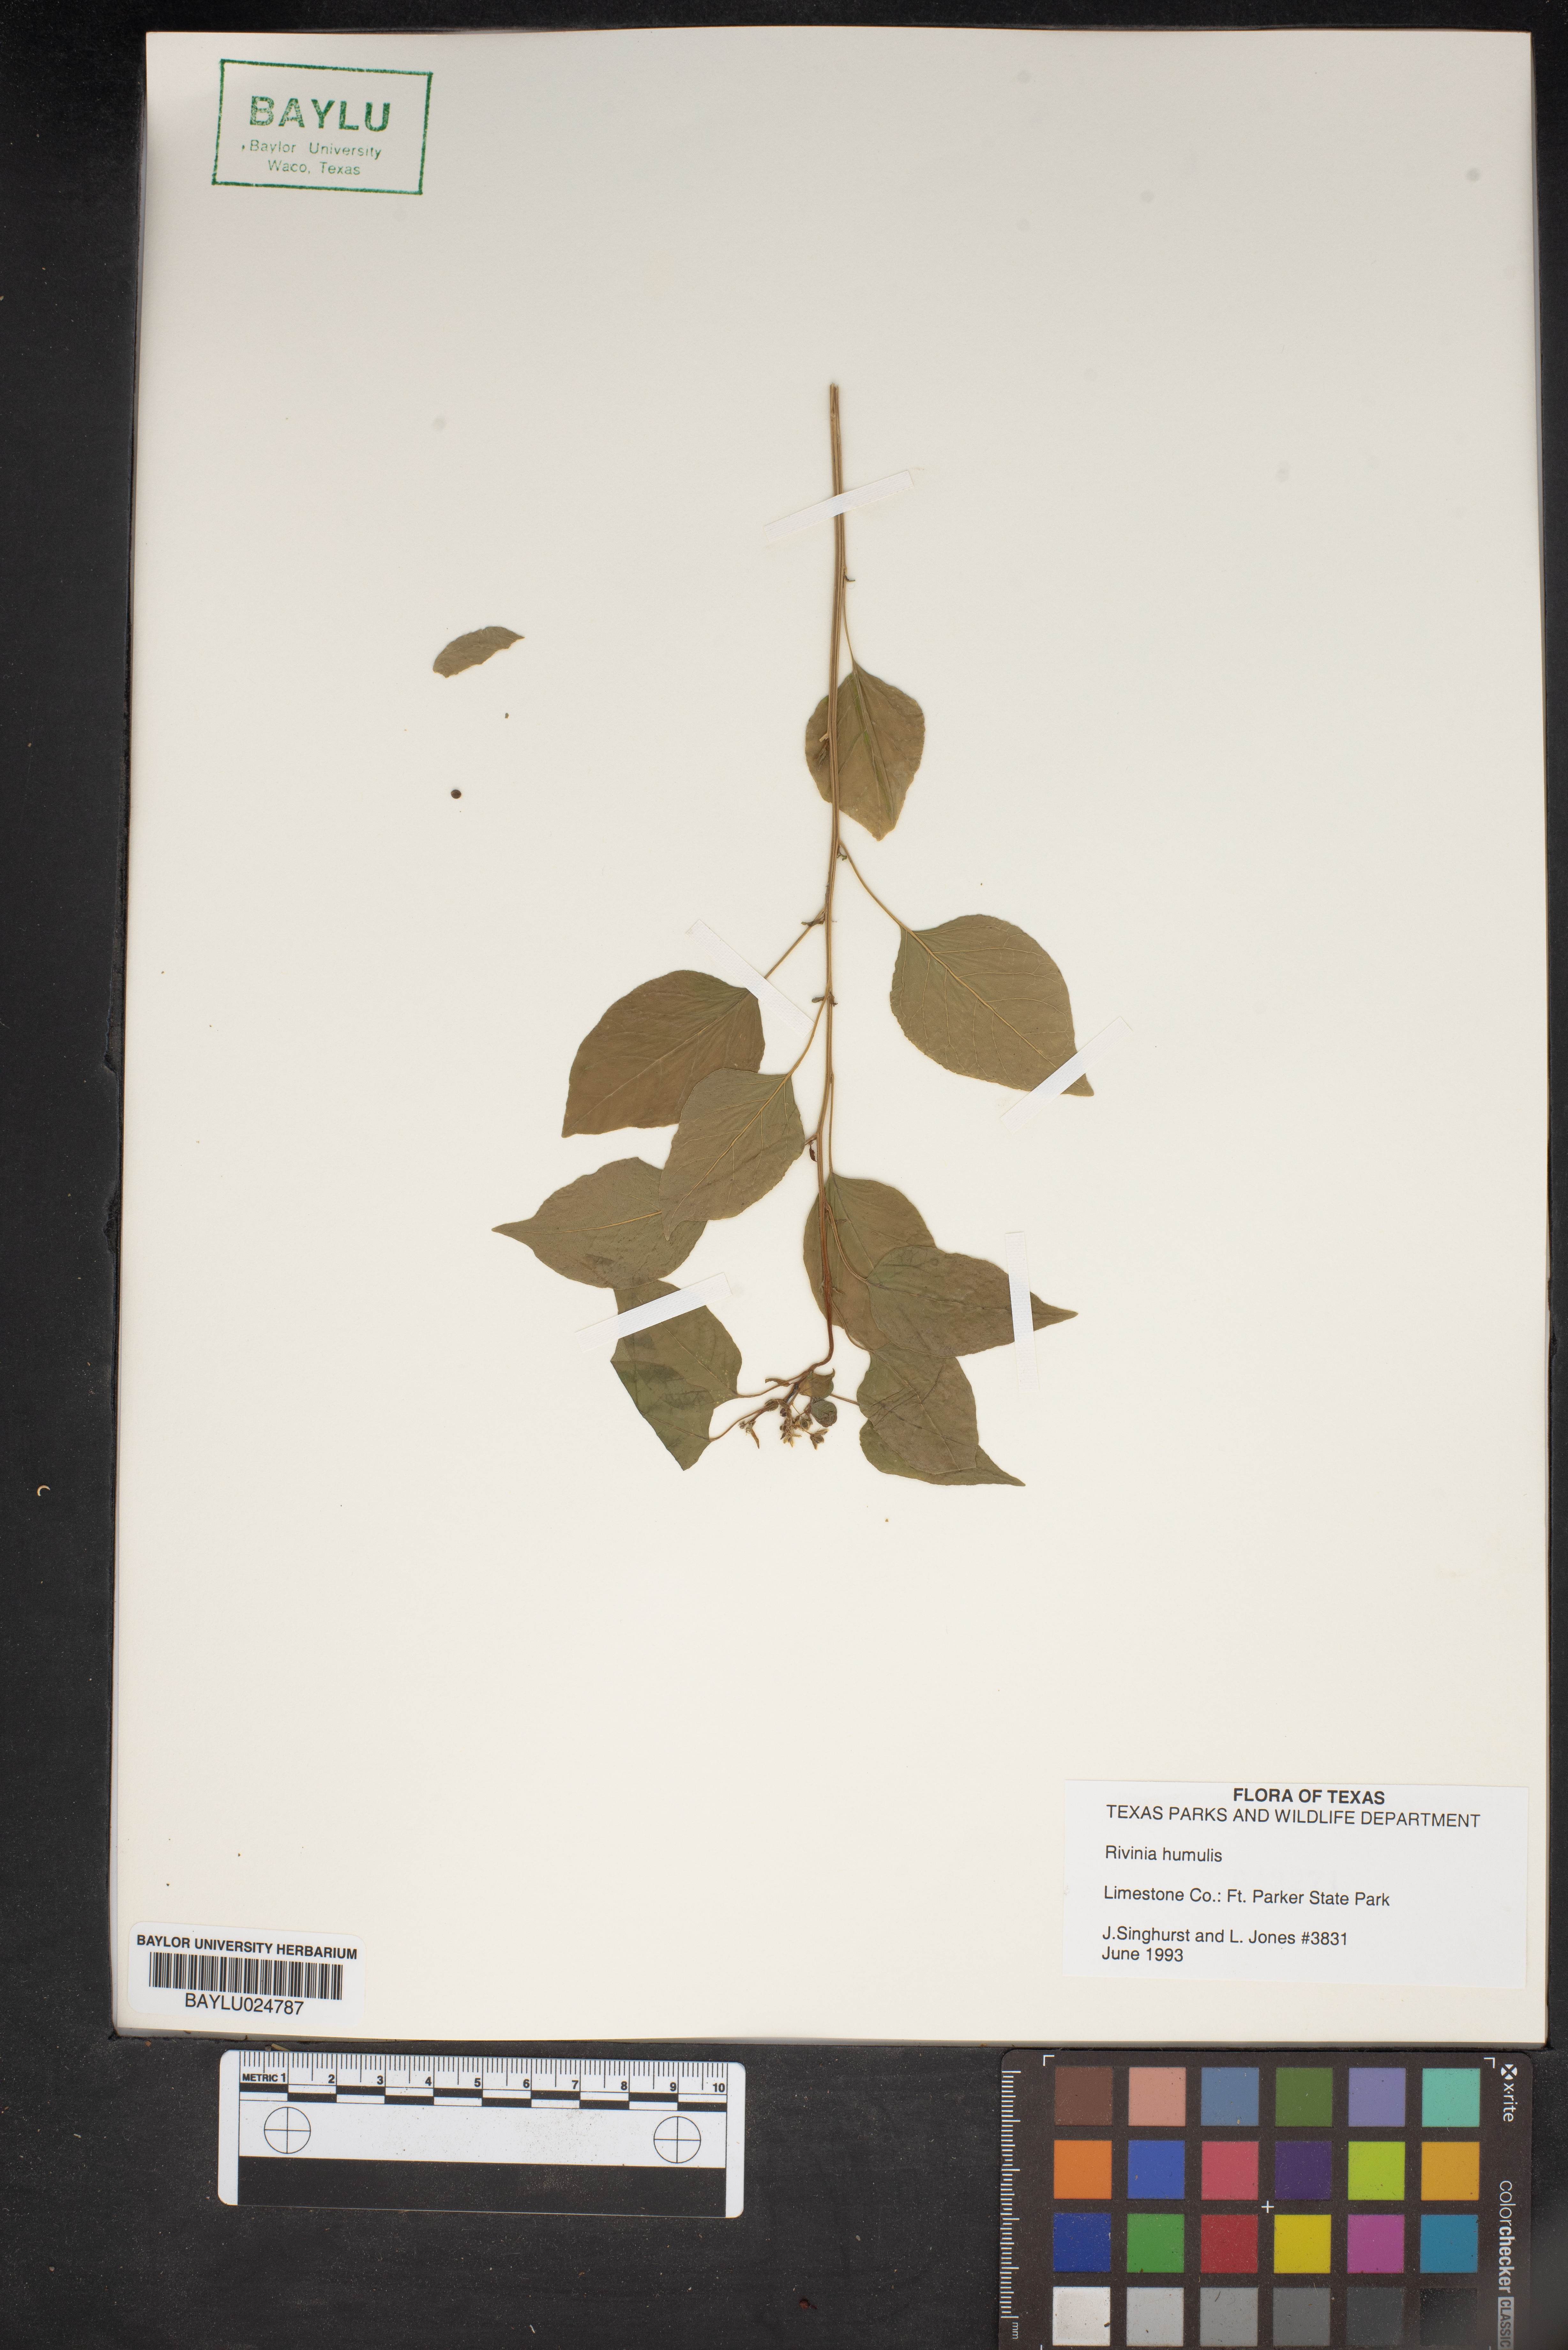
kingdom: Plantae
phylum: Tracheophyta
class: Magnoliopsida
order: Caryophyllales
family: Phytolaccaceae
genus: Rivina
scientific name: Rivina humilis
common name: Rougeplant
